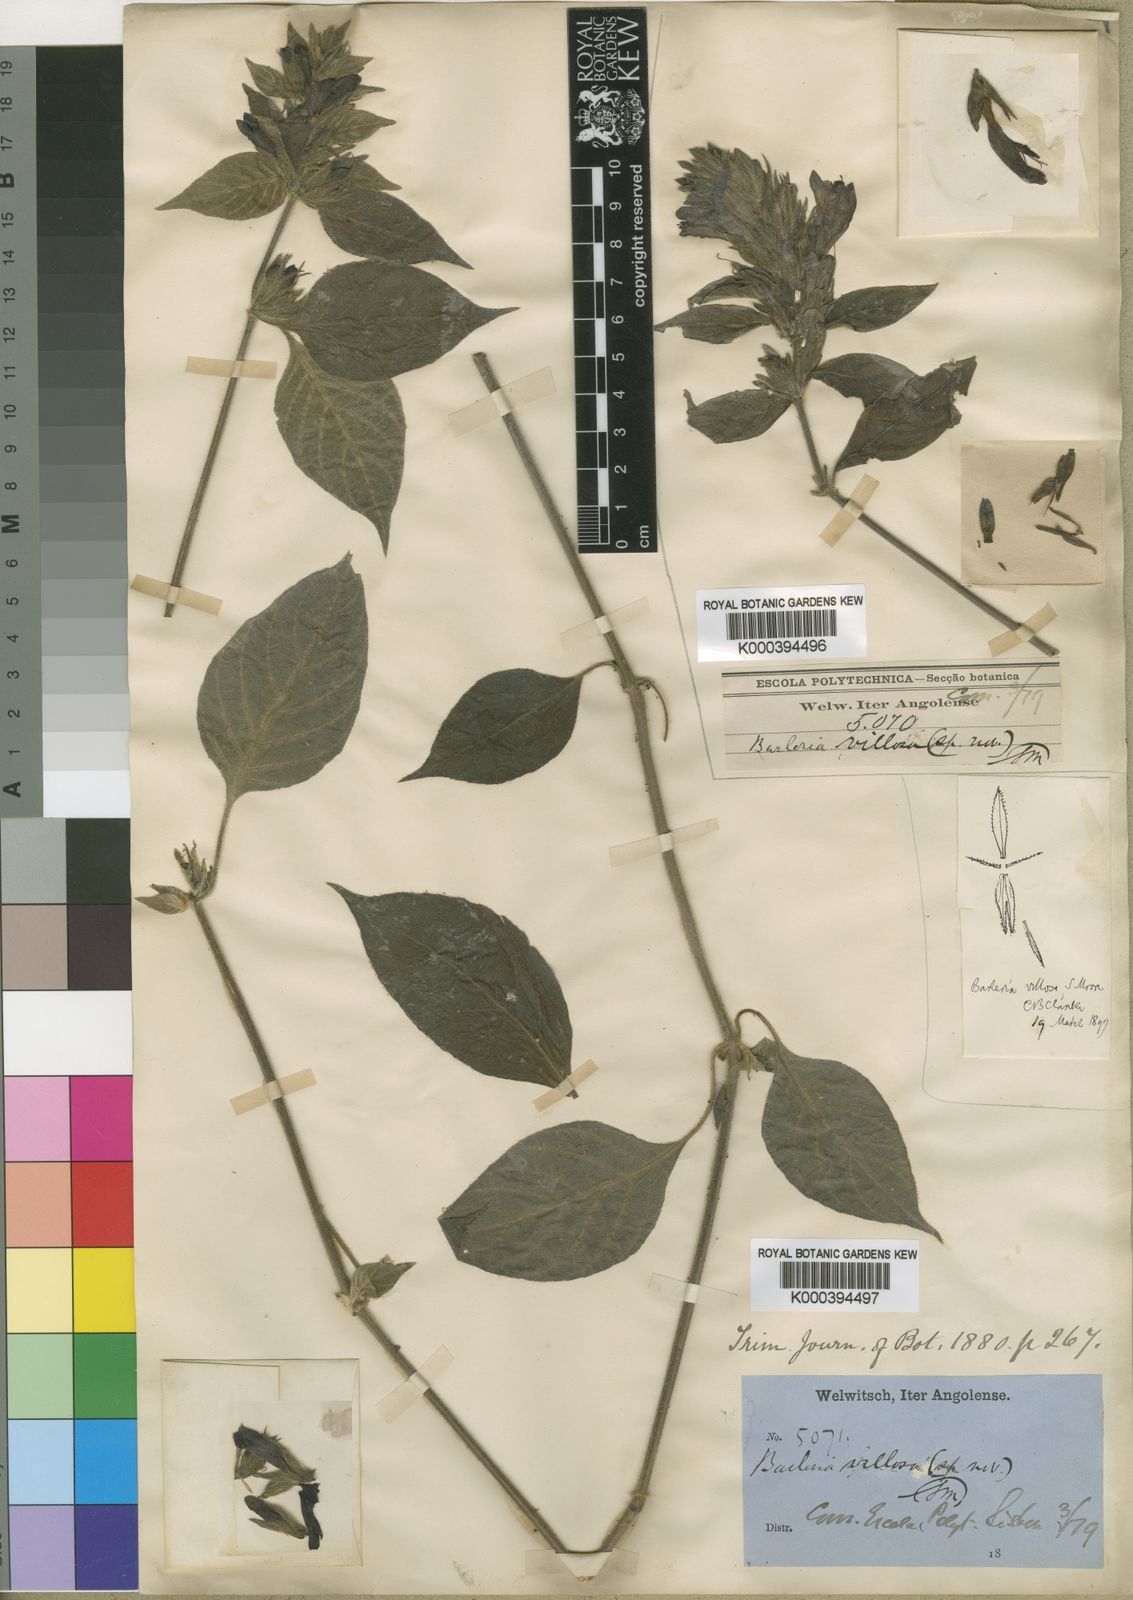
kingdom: Plantae
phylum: Tracheophyta
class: Magnoliopsida
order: Lamiales
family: Acanthaceae
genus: Barleria
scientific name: Barleria villosa
